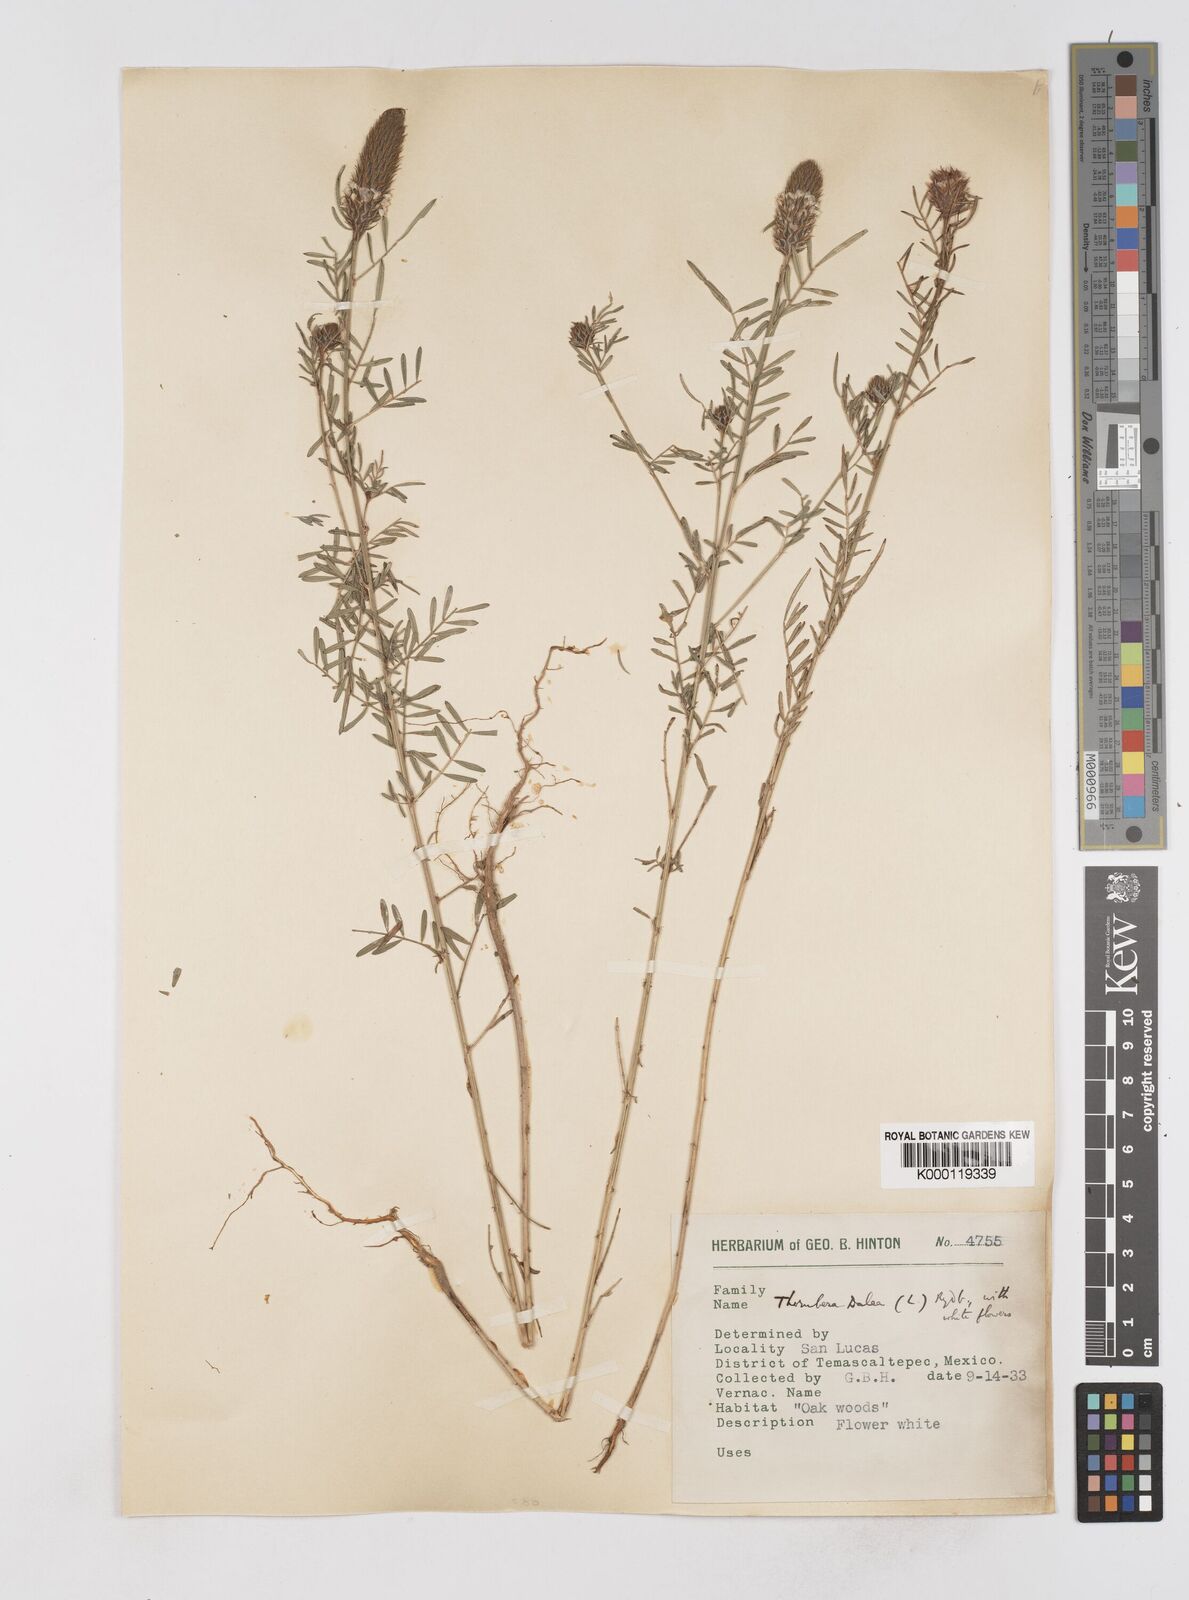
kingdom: Plantae
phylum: Tracheophyta
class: Magnoliopsida
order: Fabales
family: Fabaceae
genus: Dalea
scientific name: Dalea cliffortiana
